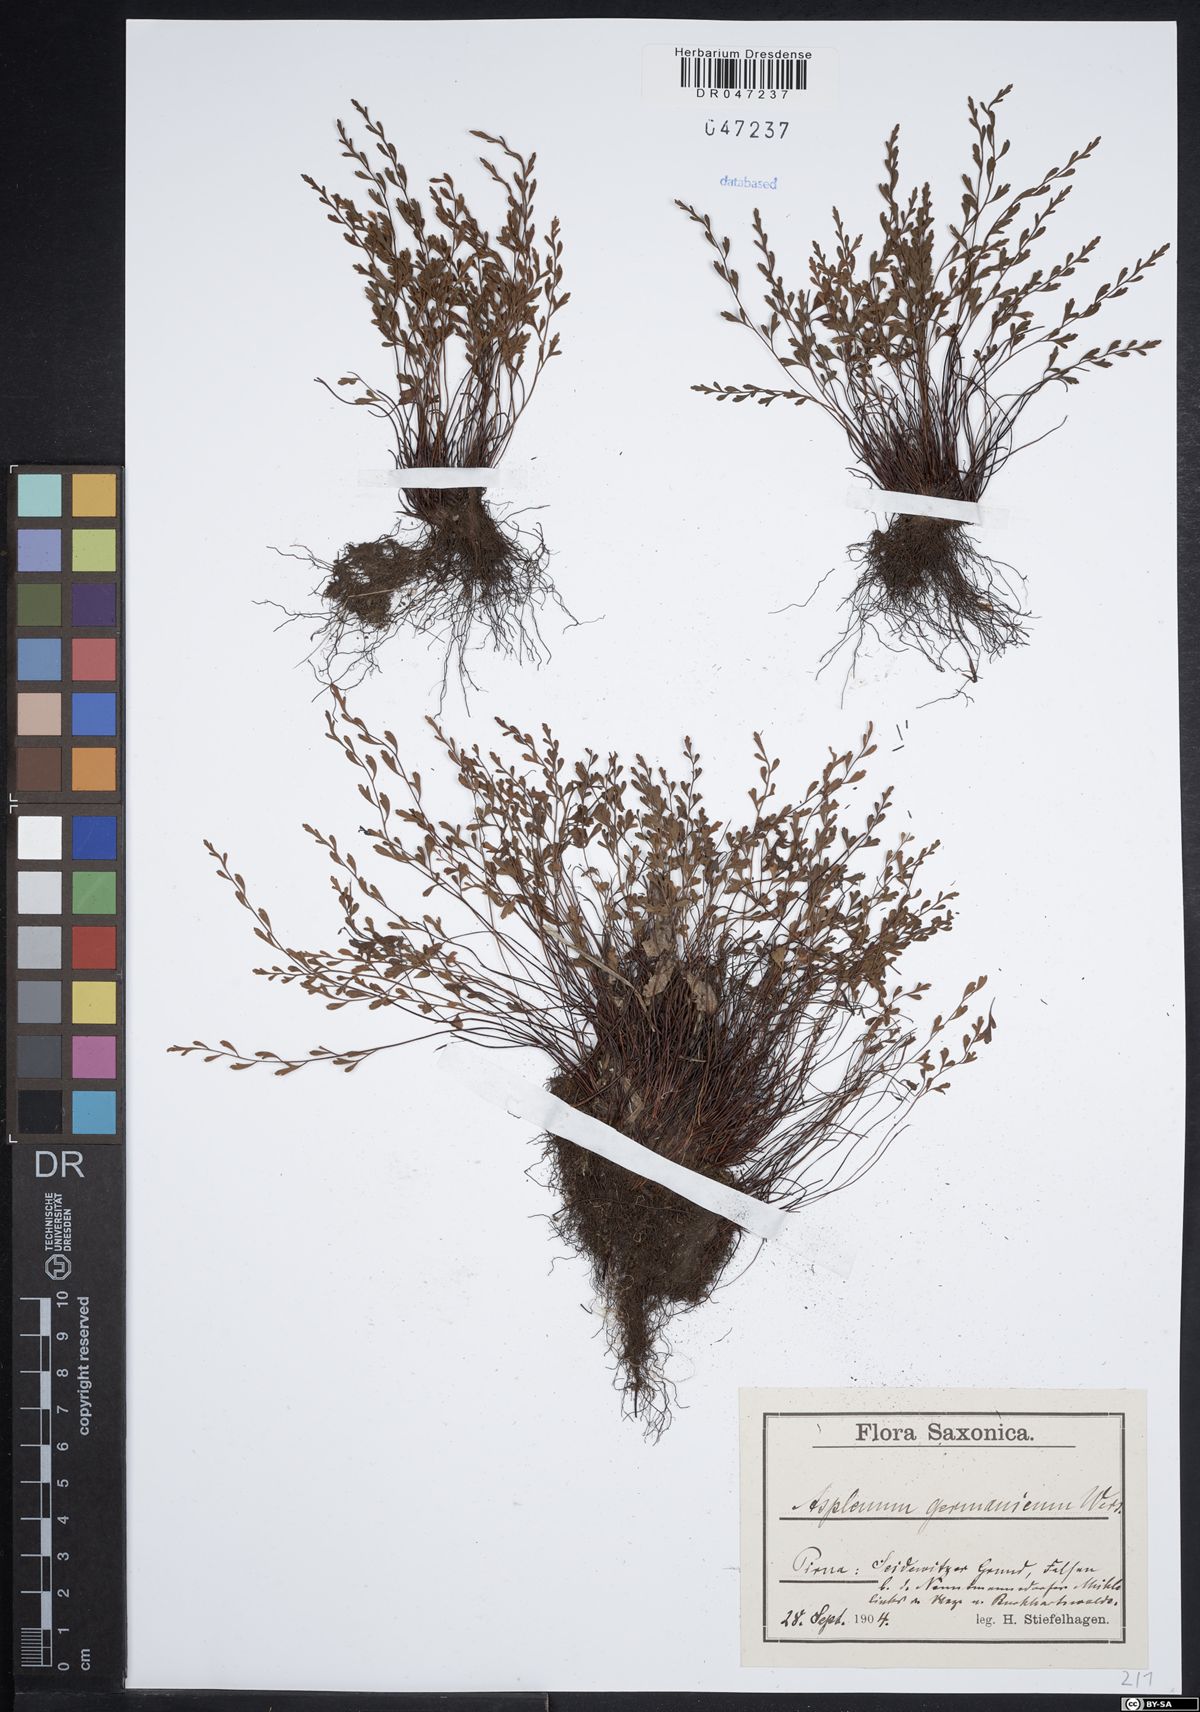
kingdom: Plantae
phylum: Tracheophyta
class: Polypodiopsida
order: Polypodiales
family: Aspleniaceae
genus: Asplenium
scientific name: Asplenium
